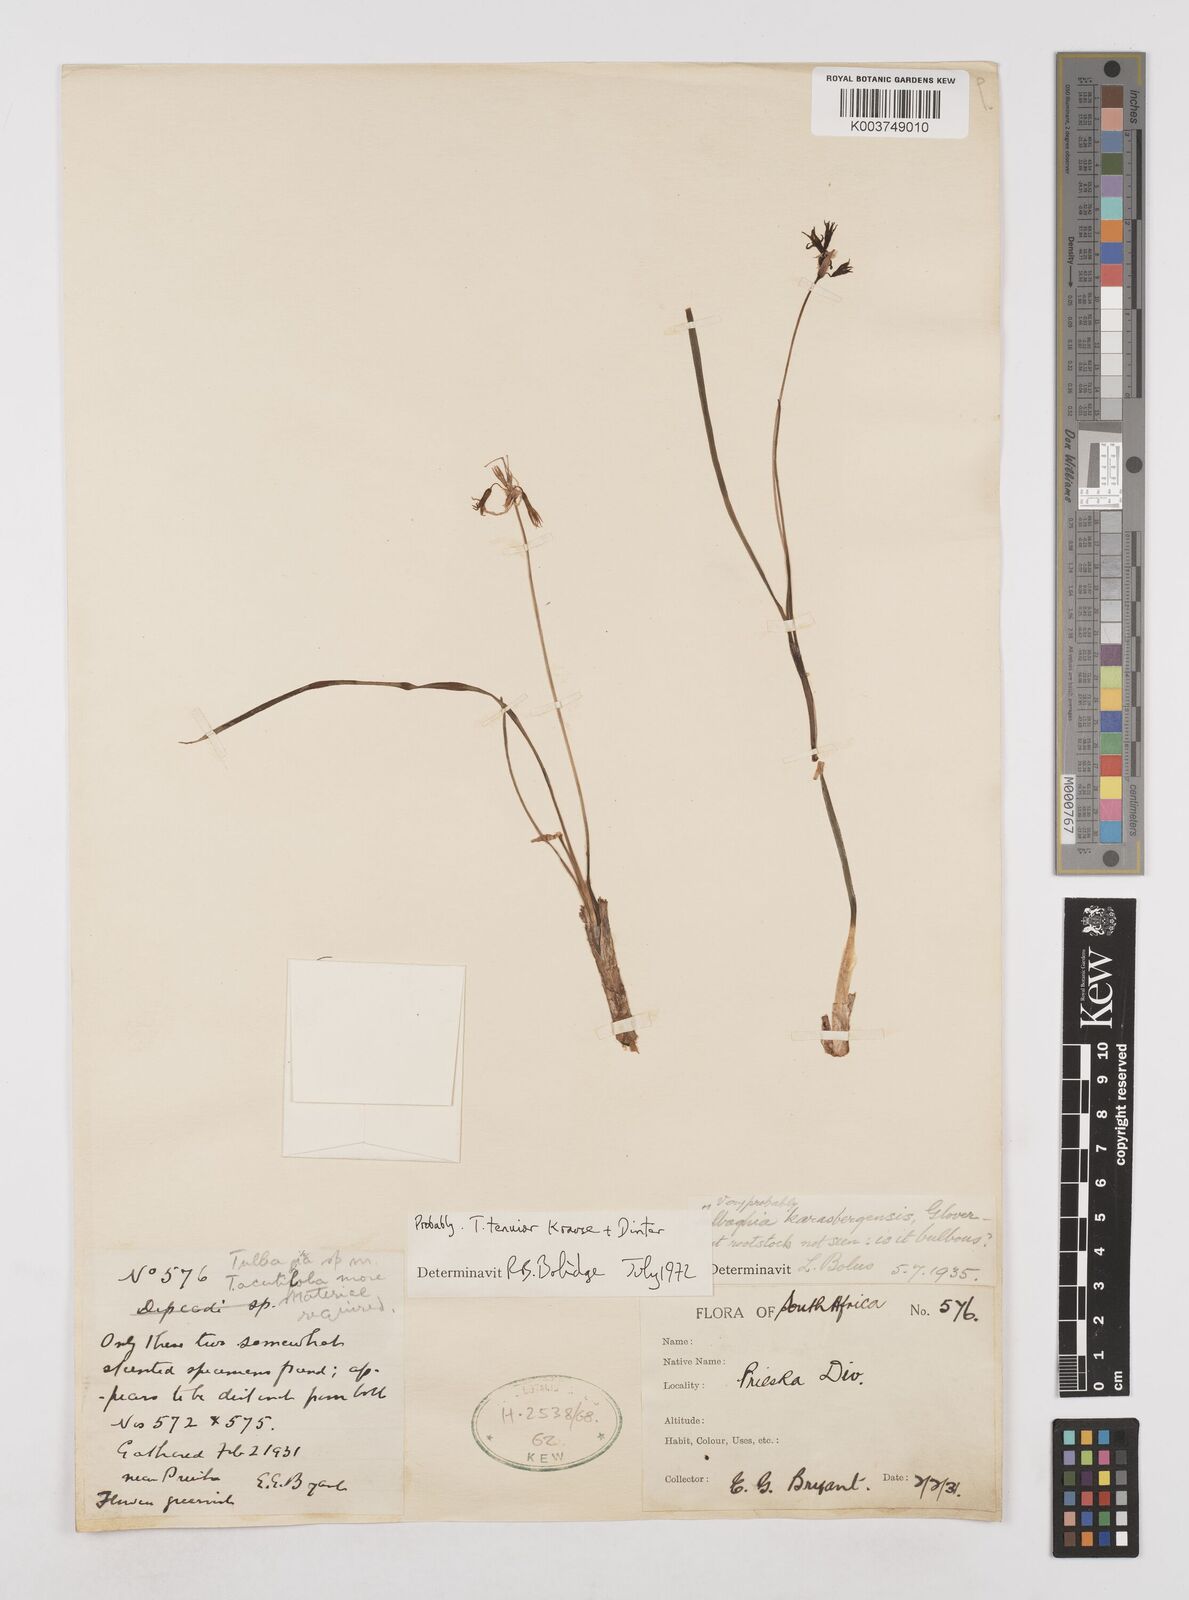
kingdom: Plantae
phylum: Tracheophyta
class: Liliopsida
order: Asparagales
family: Amaryllidaceae
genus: Tulbaghia
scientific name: Tulbaghia tenuior
